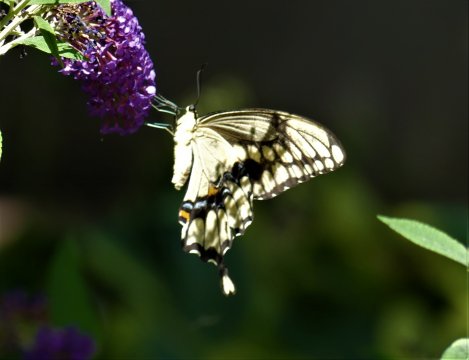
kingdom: Animalia
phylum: Arthropoda
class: Insecta
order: Lepidoptera
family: Papilionidae
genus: Papilio
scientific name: Papilio cresphontes
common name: Eastern Giant Swallowtail
